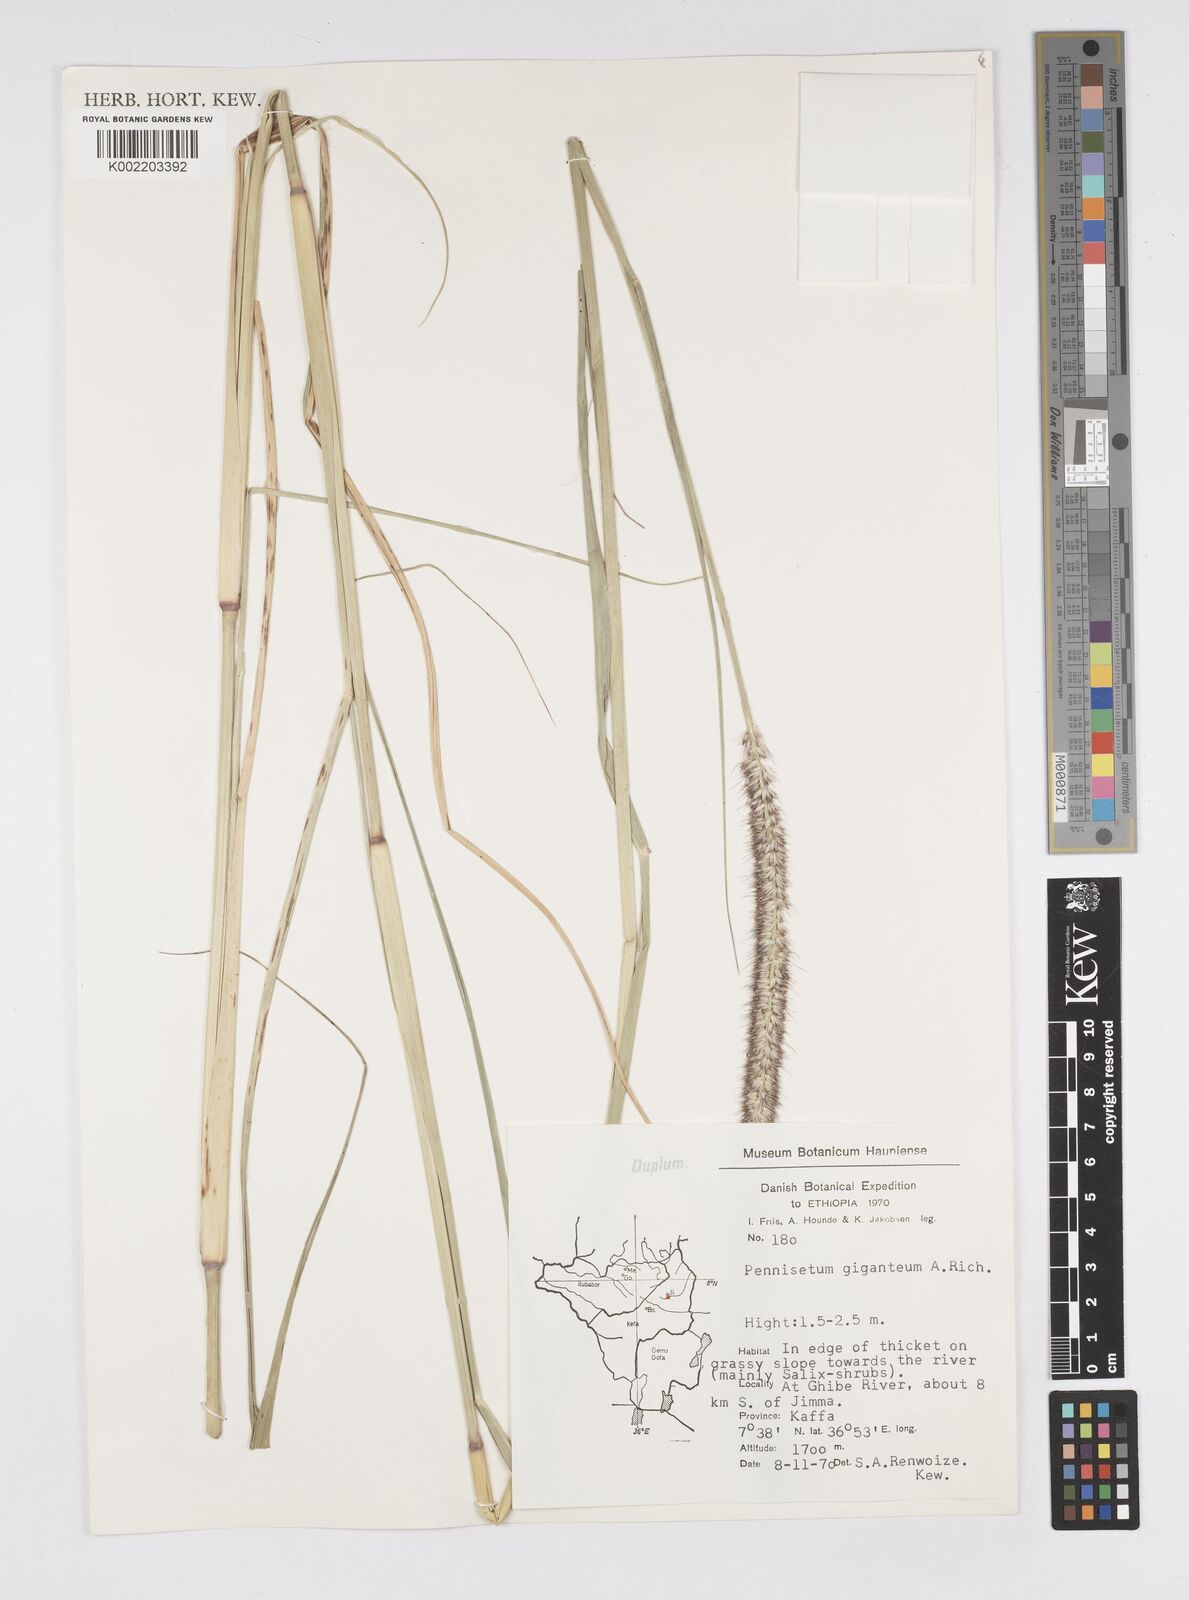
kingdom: Plantae
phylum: Tracheophyta
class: Liliopsida
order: Poales
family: Poaceae
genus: Cenchrus
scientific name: Cenchrus caudatus
